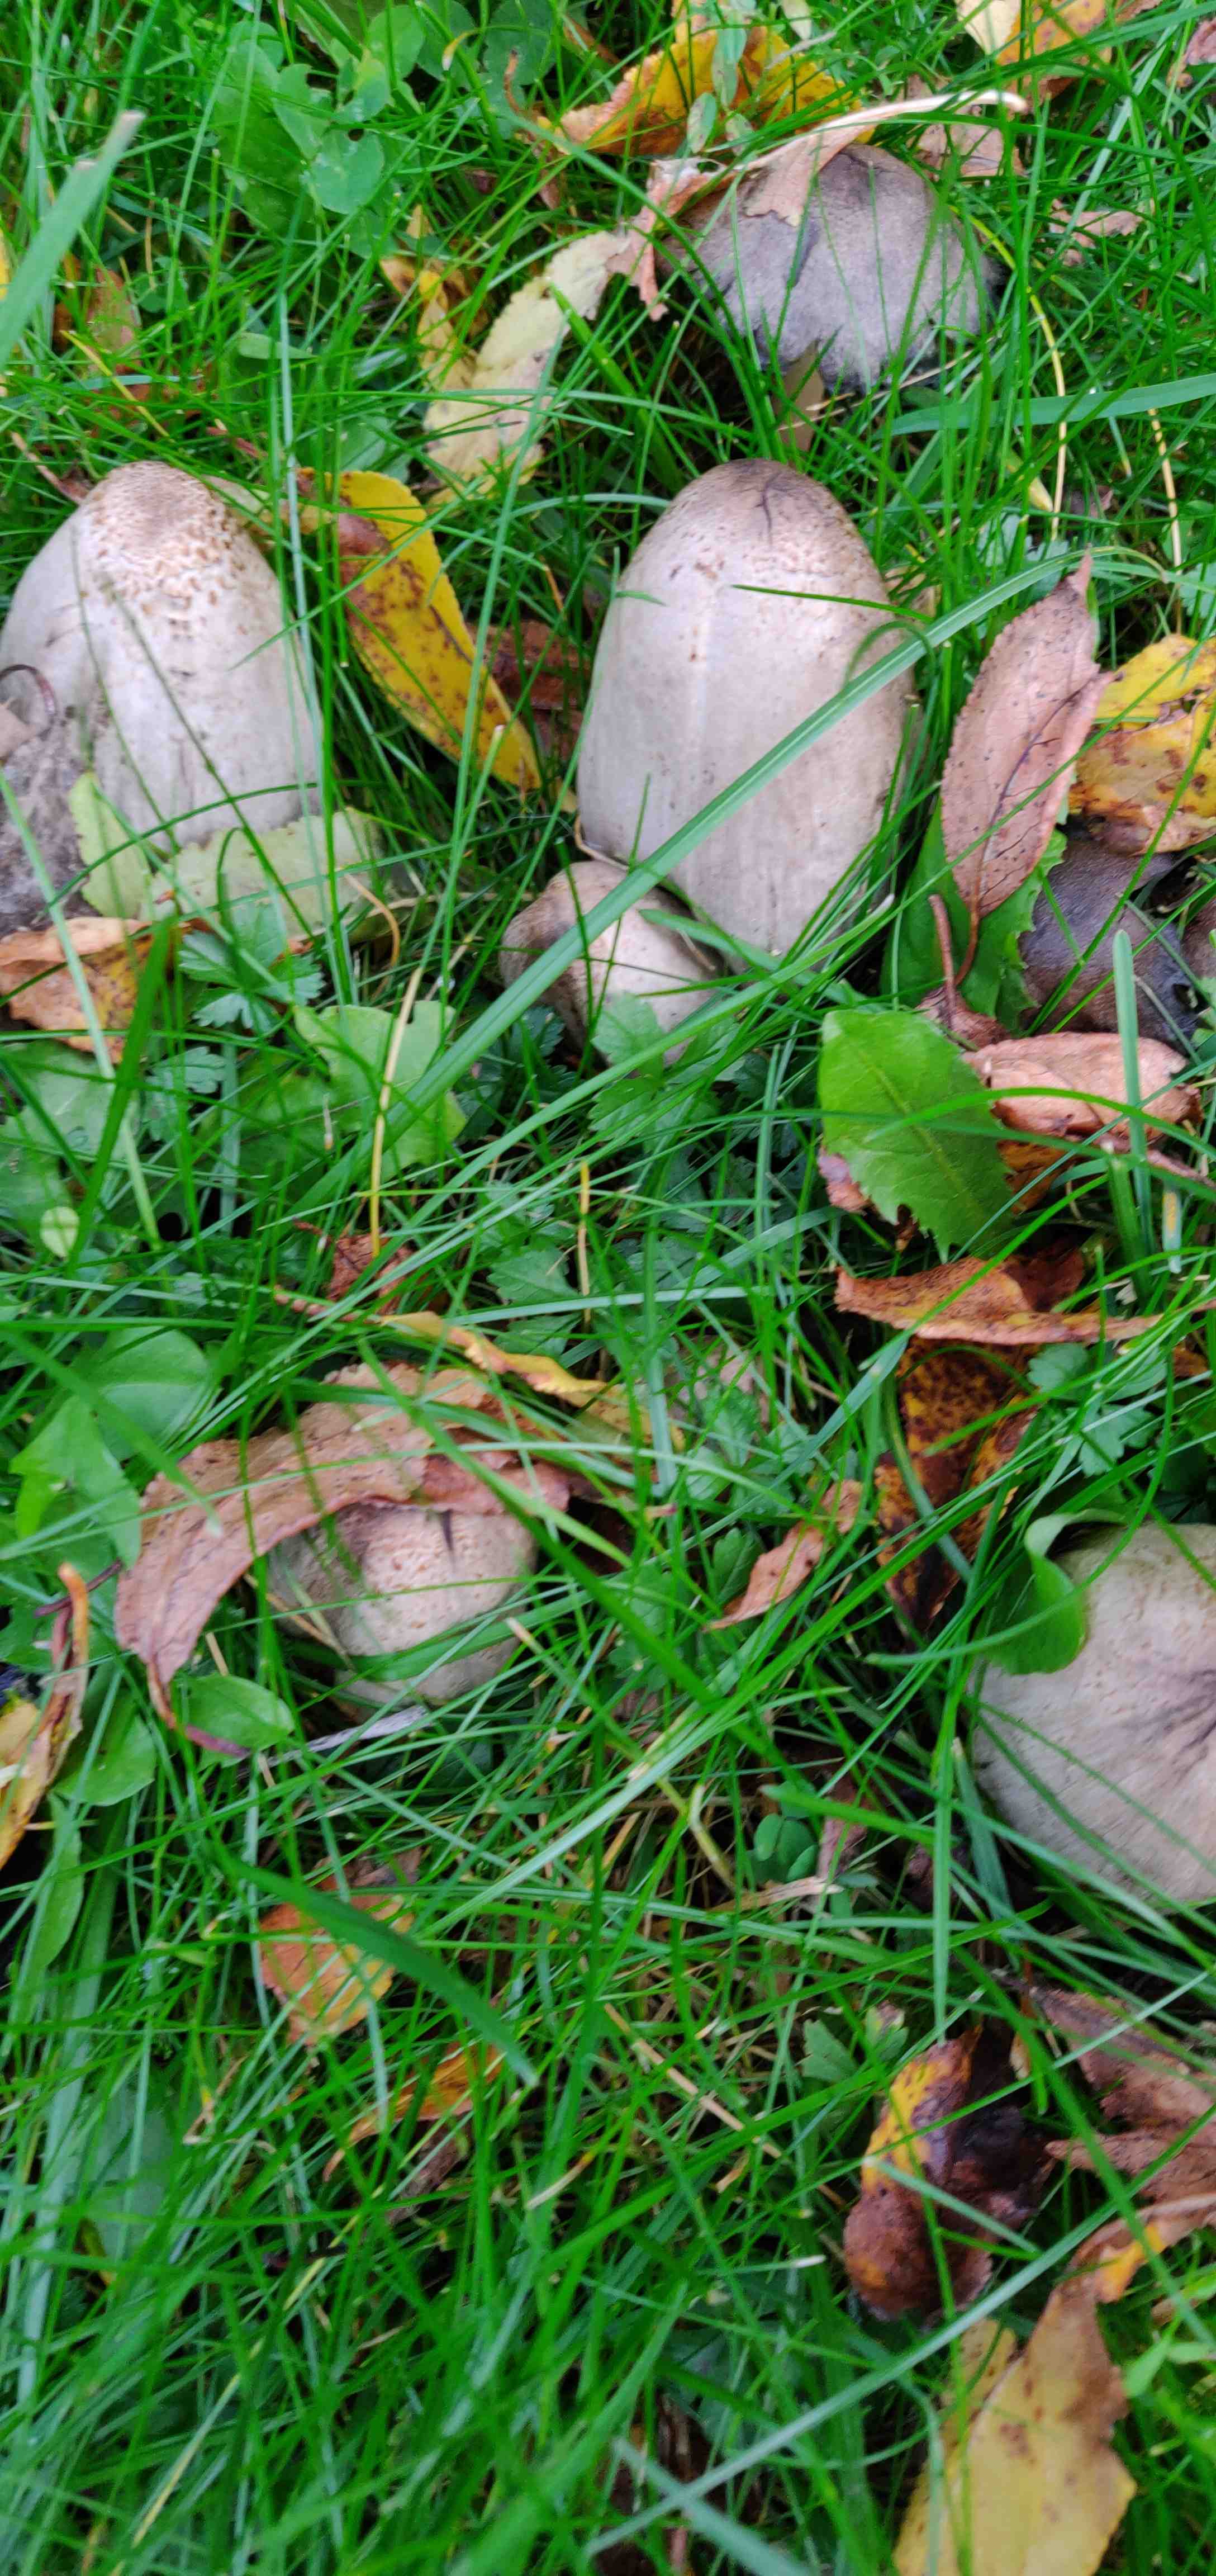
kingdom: Fungi
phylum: Basidiomycota
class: Agaricomycetes
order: Agaricales
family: Psathyrellaceae
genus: Coprinopsis
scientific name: Coprinopsis
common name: blækhat
